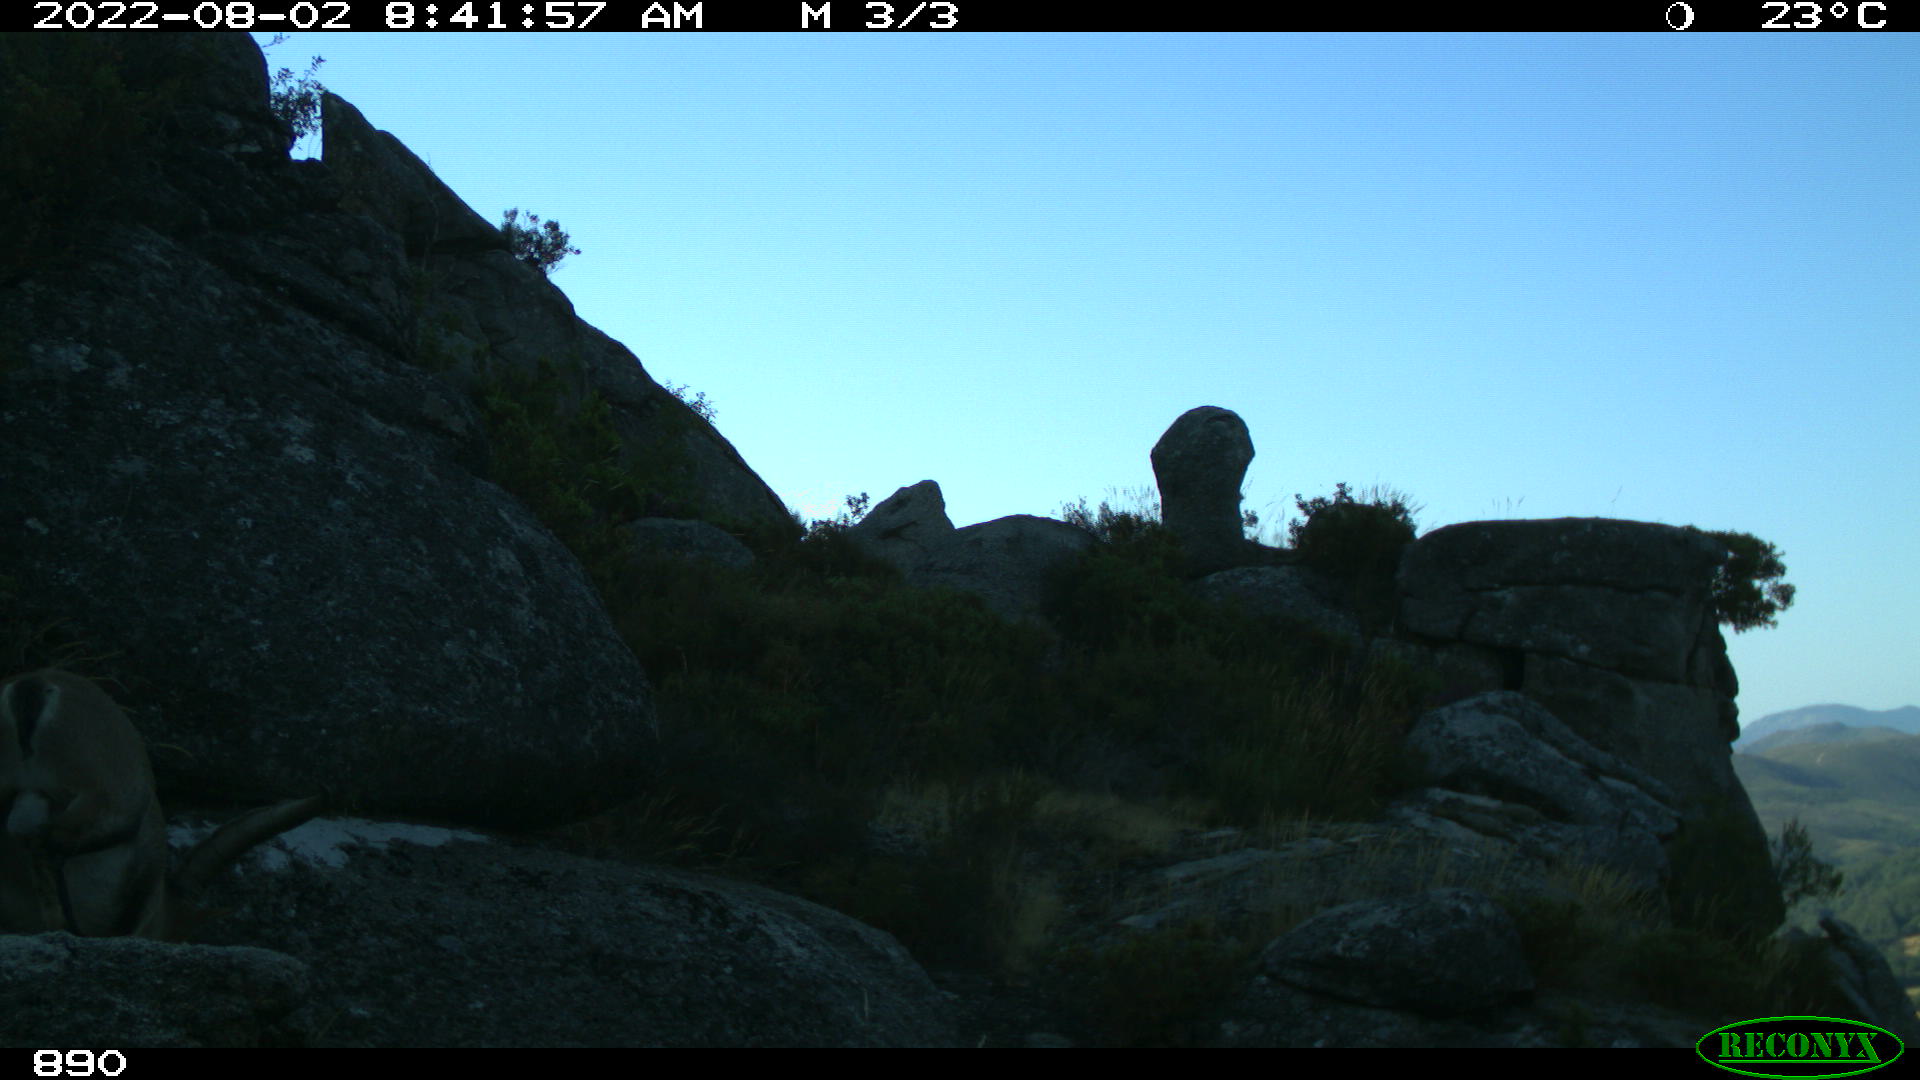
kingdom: Animalia
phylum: Chordata
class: Mammalia
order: Artiodactyla
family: Bovidae
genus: Capra
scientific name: Capra pyrenaica
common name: Spanish ibex
